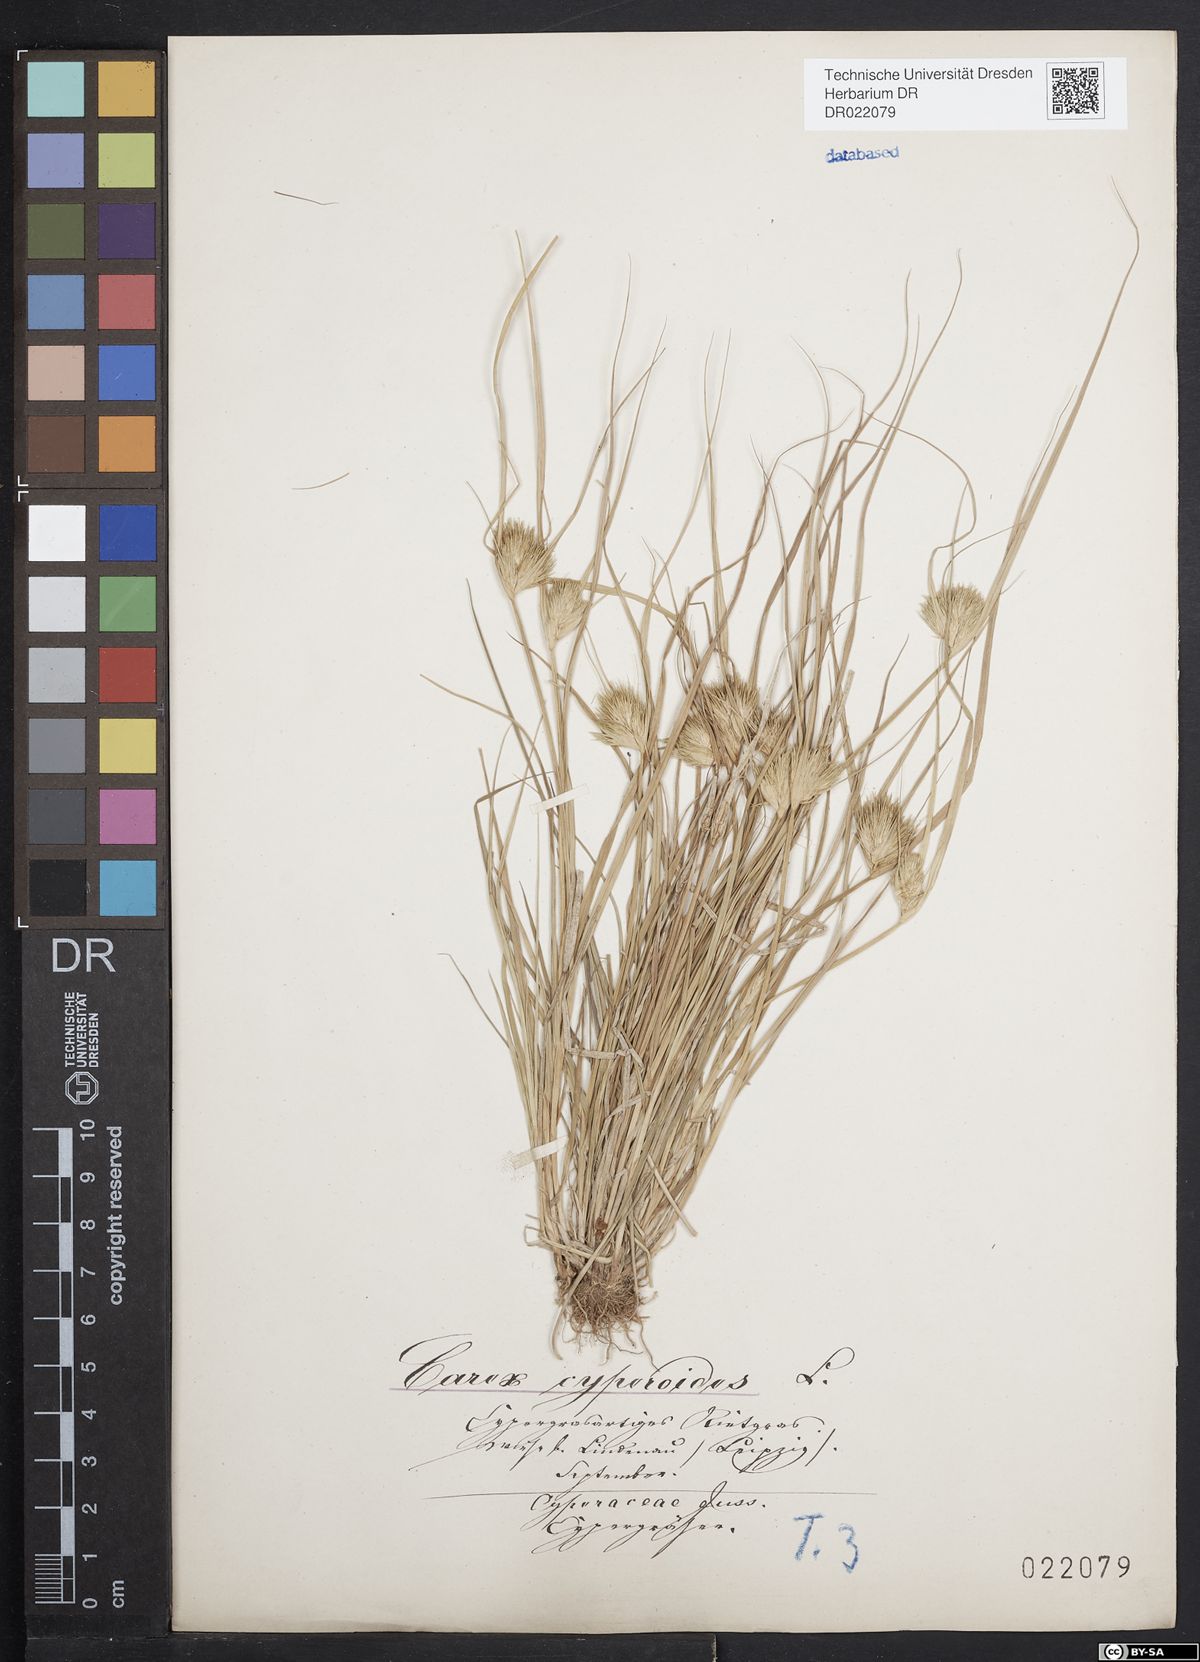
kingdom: Plantae
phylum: Tracheophyta
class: Liliopsida
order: Poales
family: Cyperaceae
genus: Carex
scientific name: Carex bohemica
